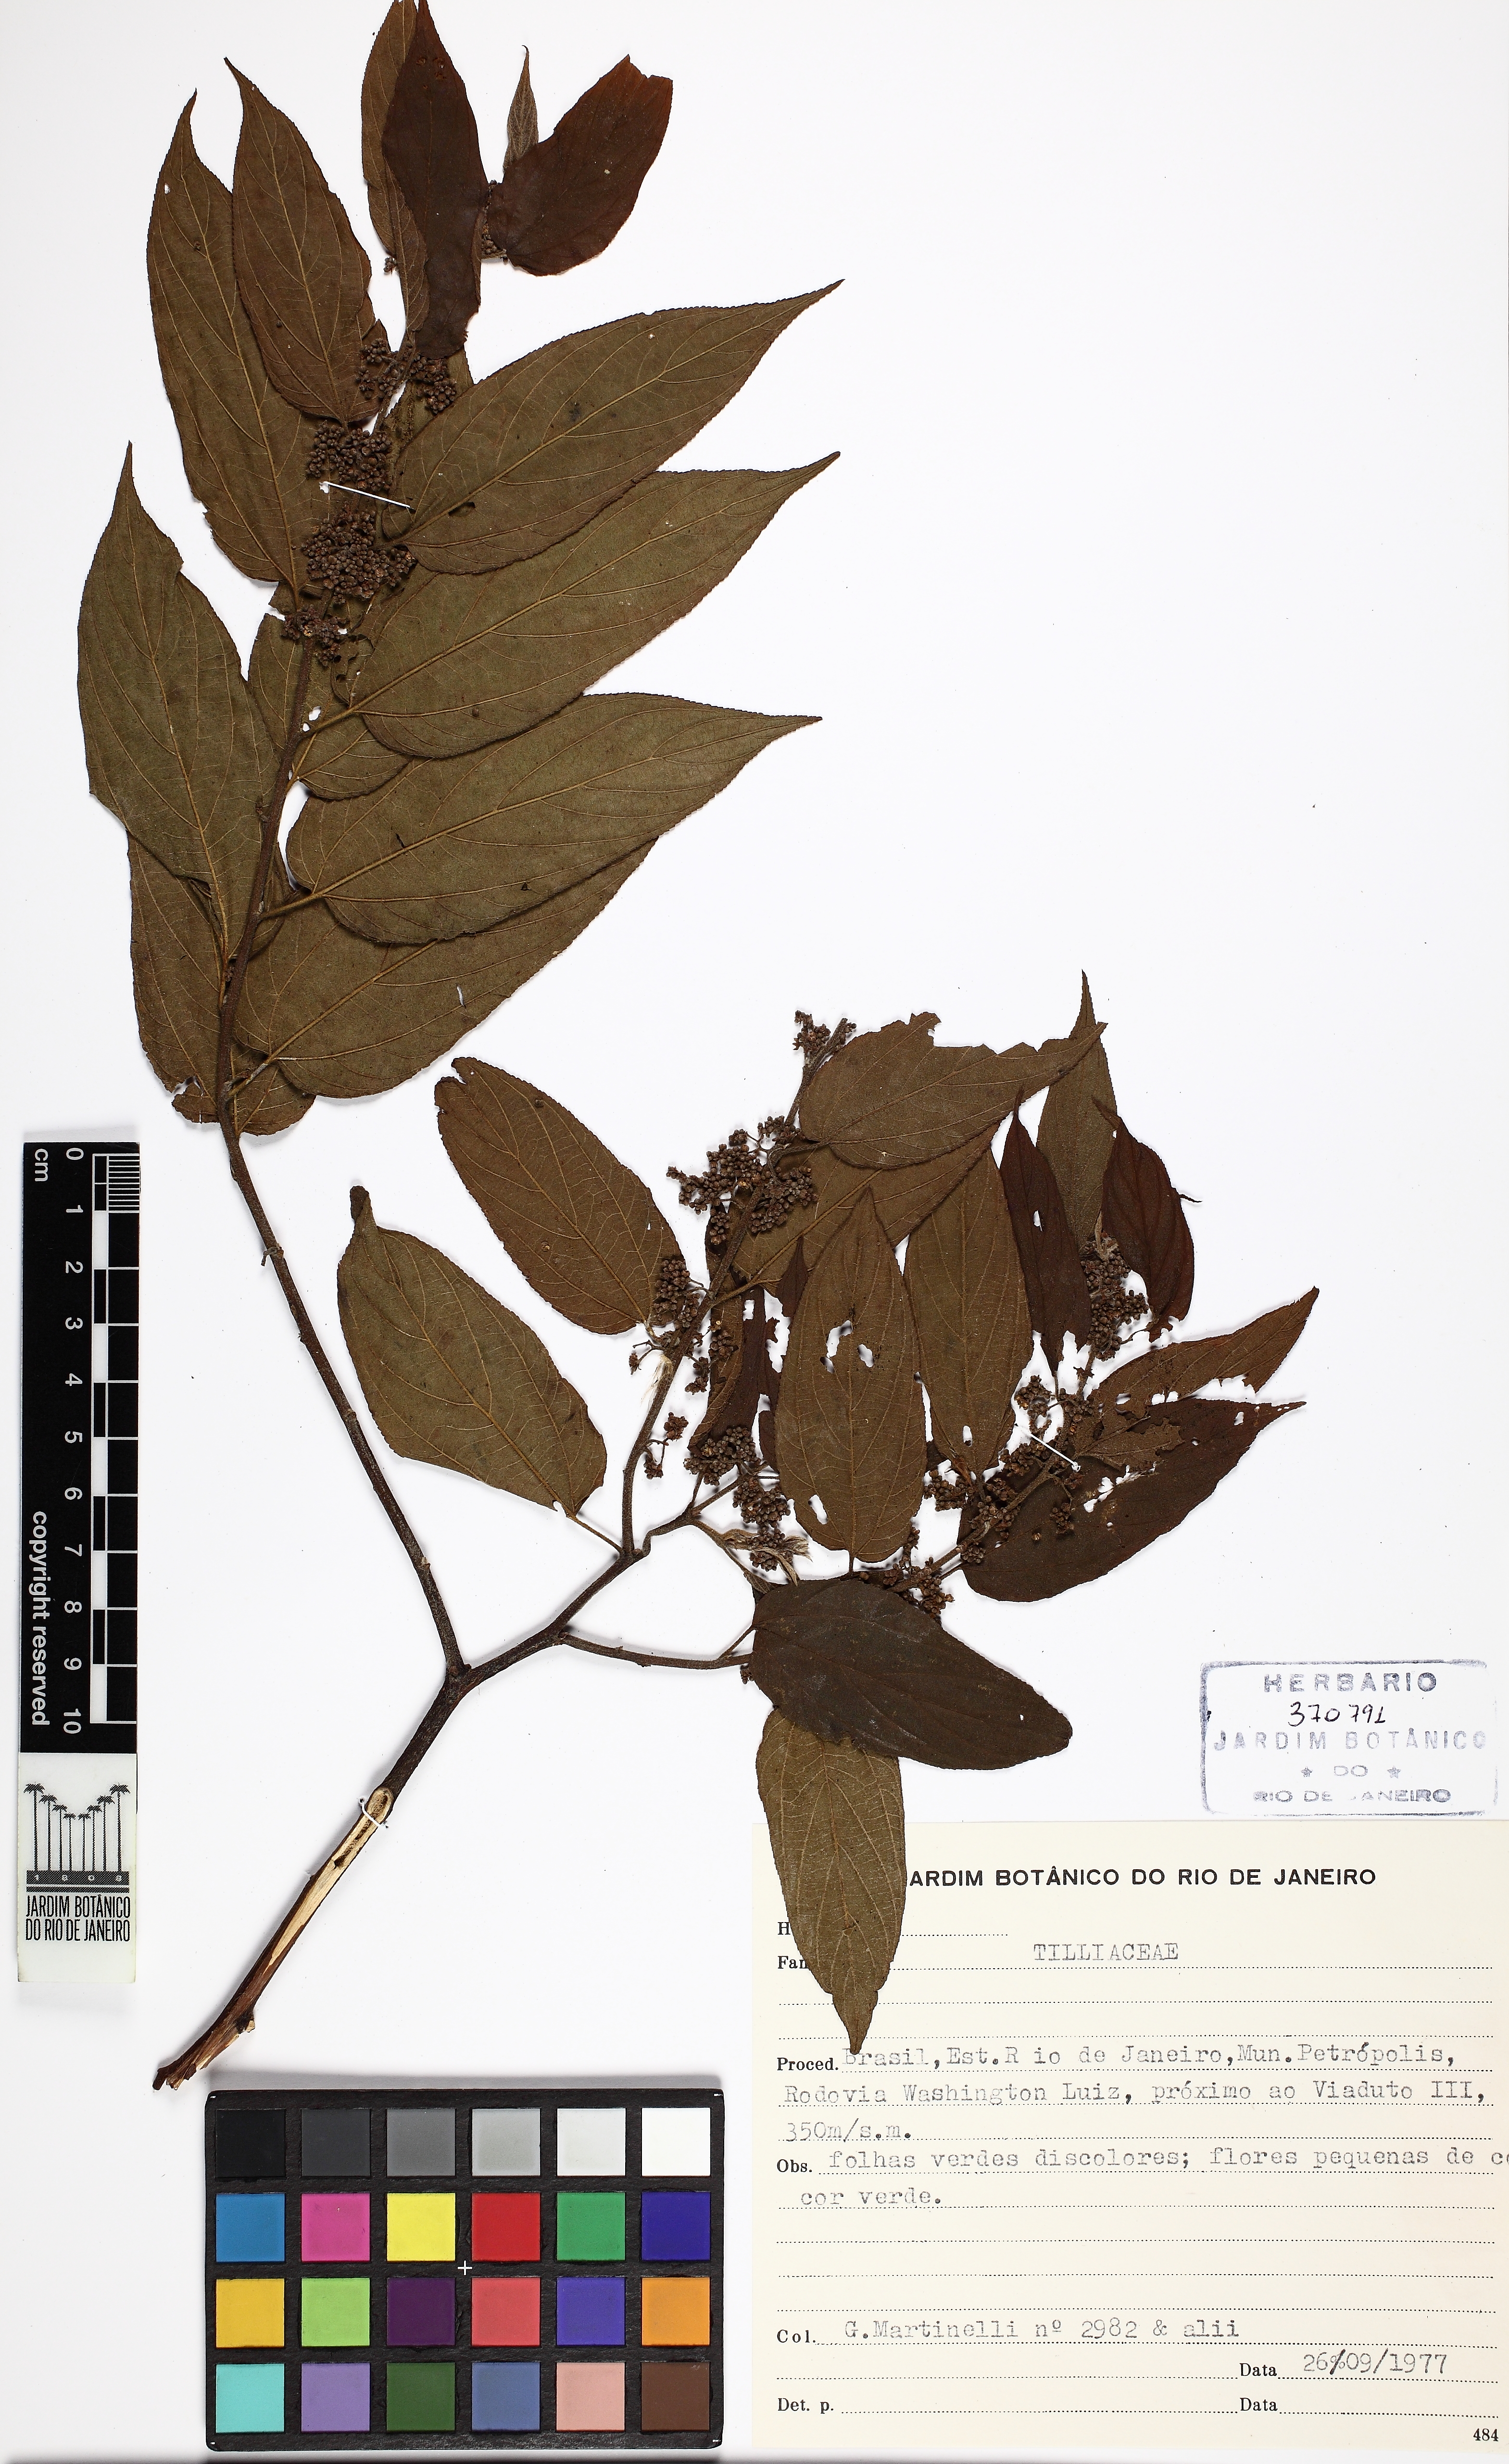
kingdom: Plantae
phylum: Tracheophyta
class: Magnoliopsida
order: Malpighiales
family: Salicaceae
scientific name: Salicaceae
